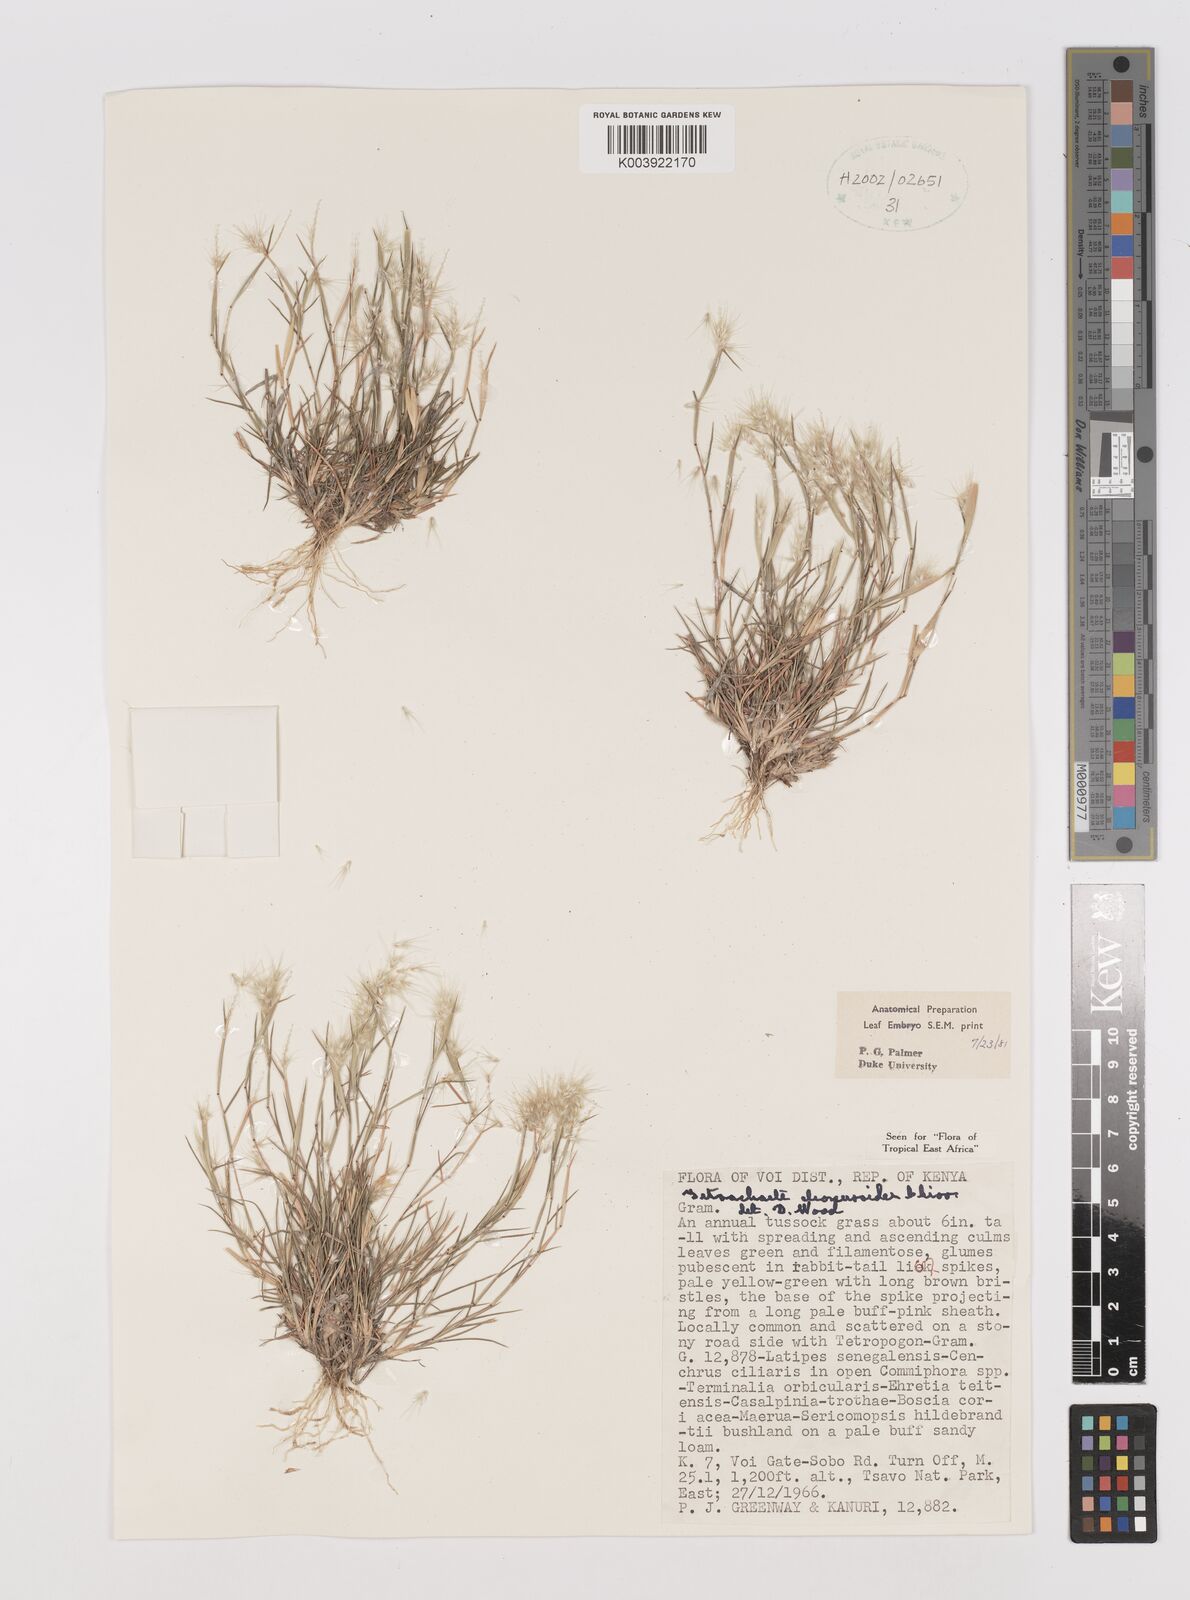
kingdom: Plantae
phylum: Tracheophyta
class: Liliopsida
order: Poales
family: Poaceae
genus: Tetrachaete
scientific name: Tetrachaete elionuroides
